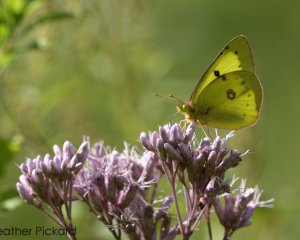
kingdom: Animalia
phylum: Arthropoda
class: Insecta
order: Lepidoptera
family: Pieridae
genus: Colias
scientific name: Colias philodice
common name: Clouded Sulphur
